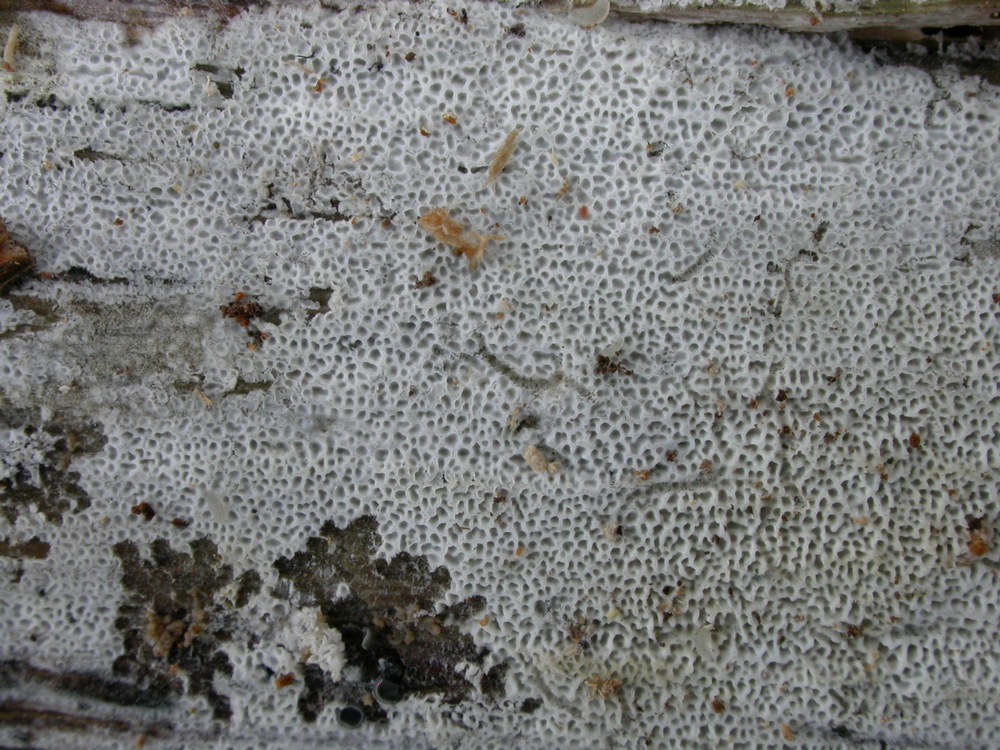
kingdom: Fungi
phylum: Basidiomycota
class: Agaricomycetes
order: Polyporales
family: Irpicaceae
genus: Ceriporia
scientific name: Ceriporia reticulata
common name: netagtig voksporesvamp
